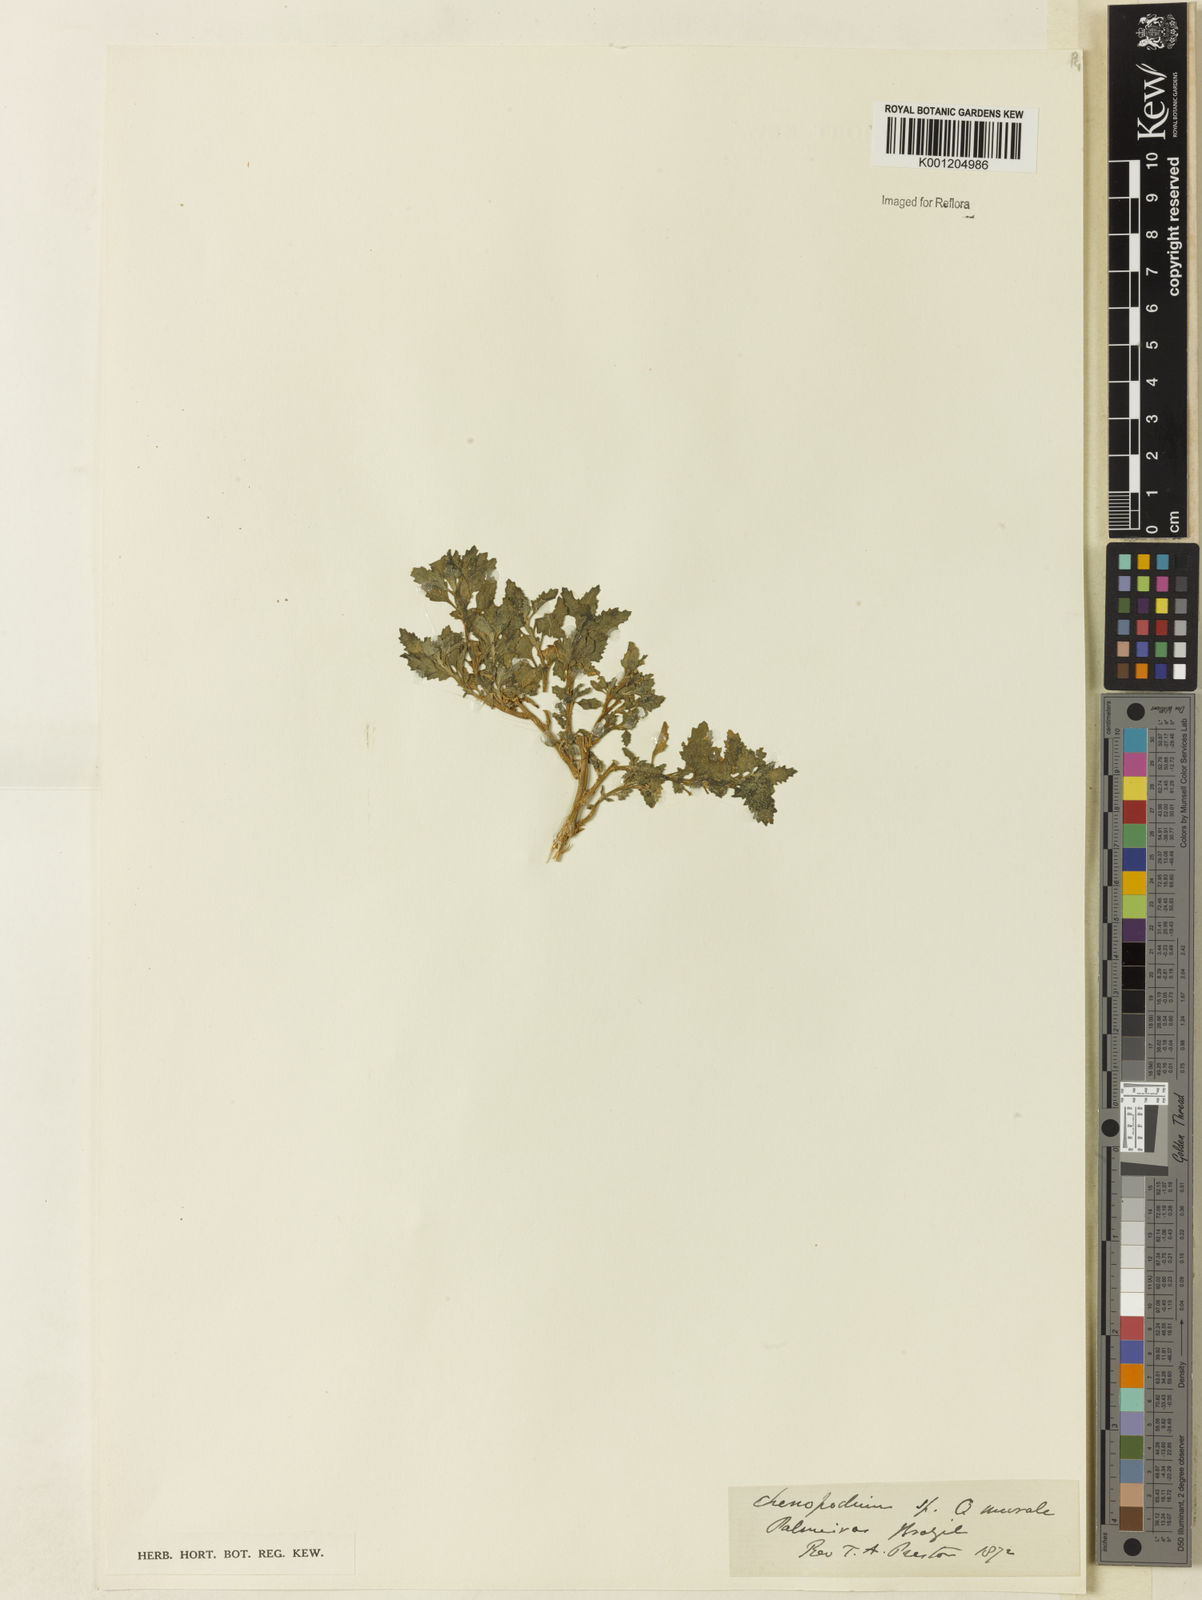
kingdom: Plantae
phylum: Tracheophyta
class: Magnoliopsida
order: Caryophyllales
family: Amaranthaceae
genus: Chenopodiastrum
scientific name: Chenopodiastrum murale
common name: Sowbane
